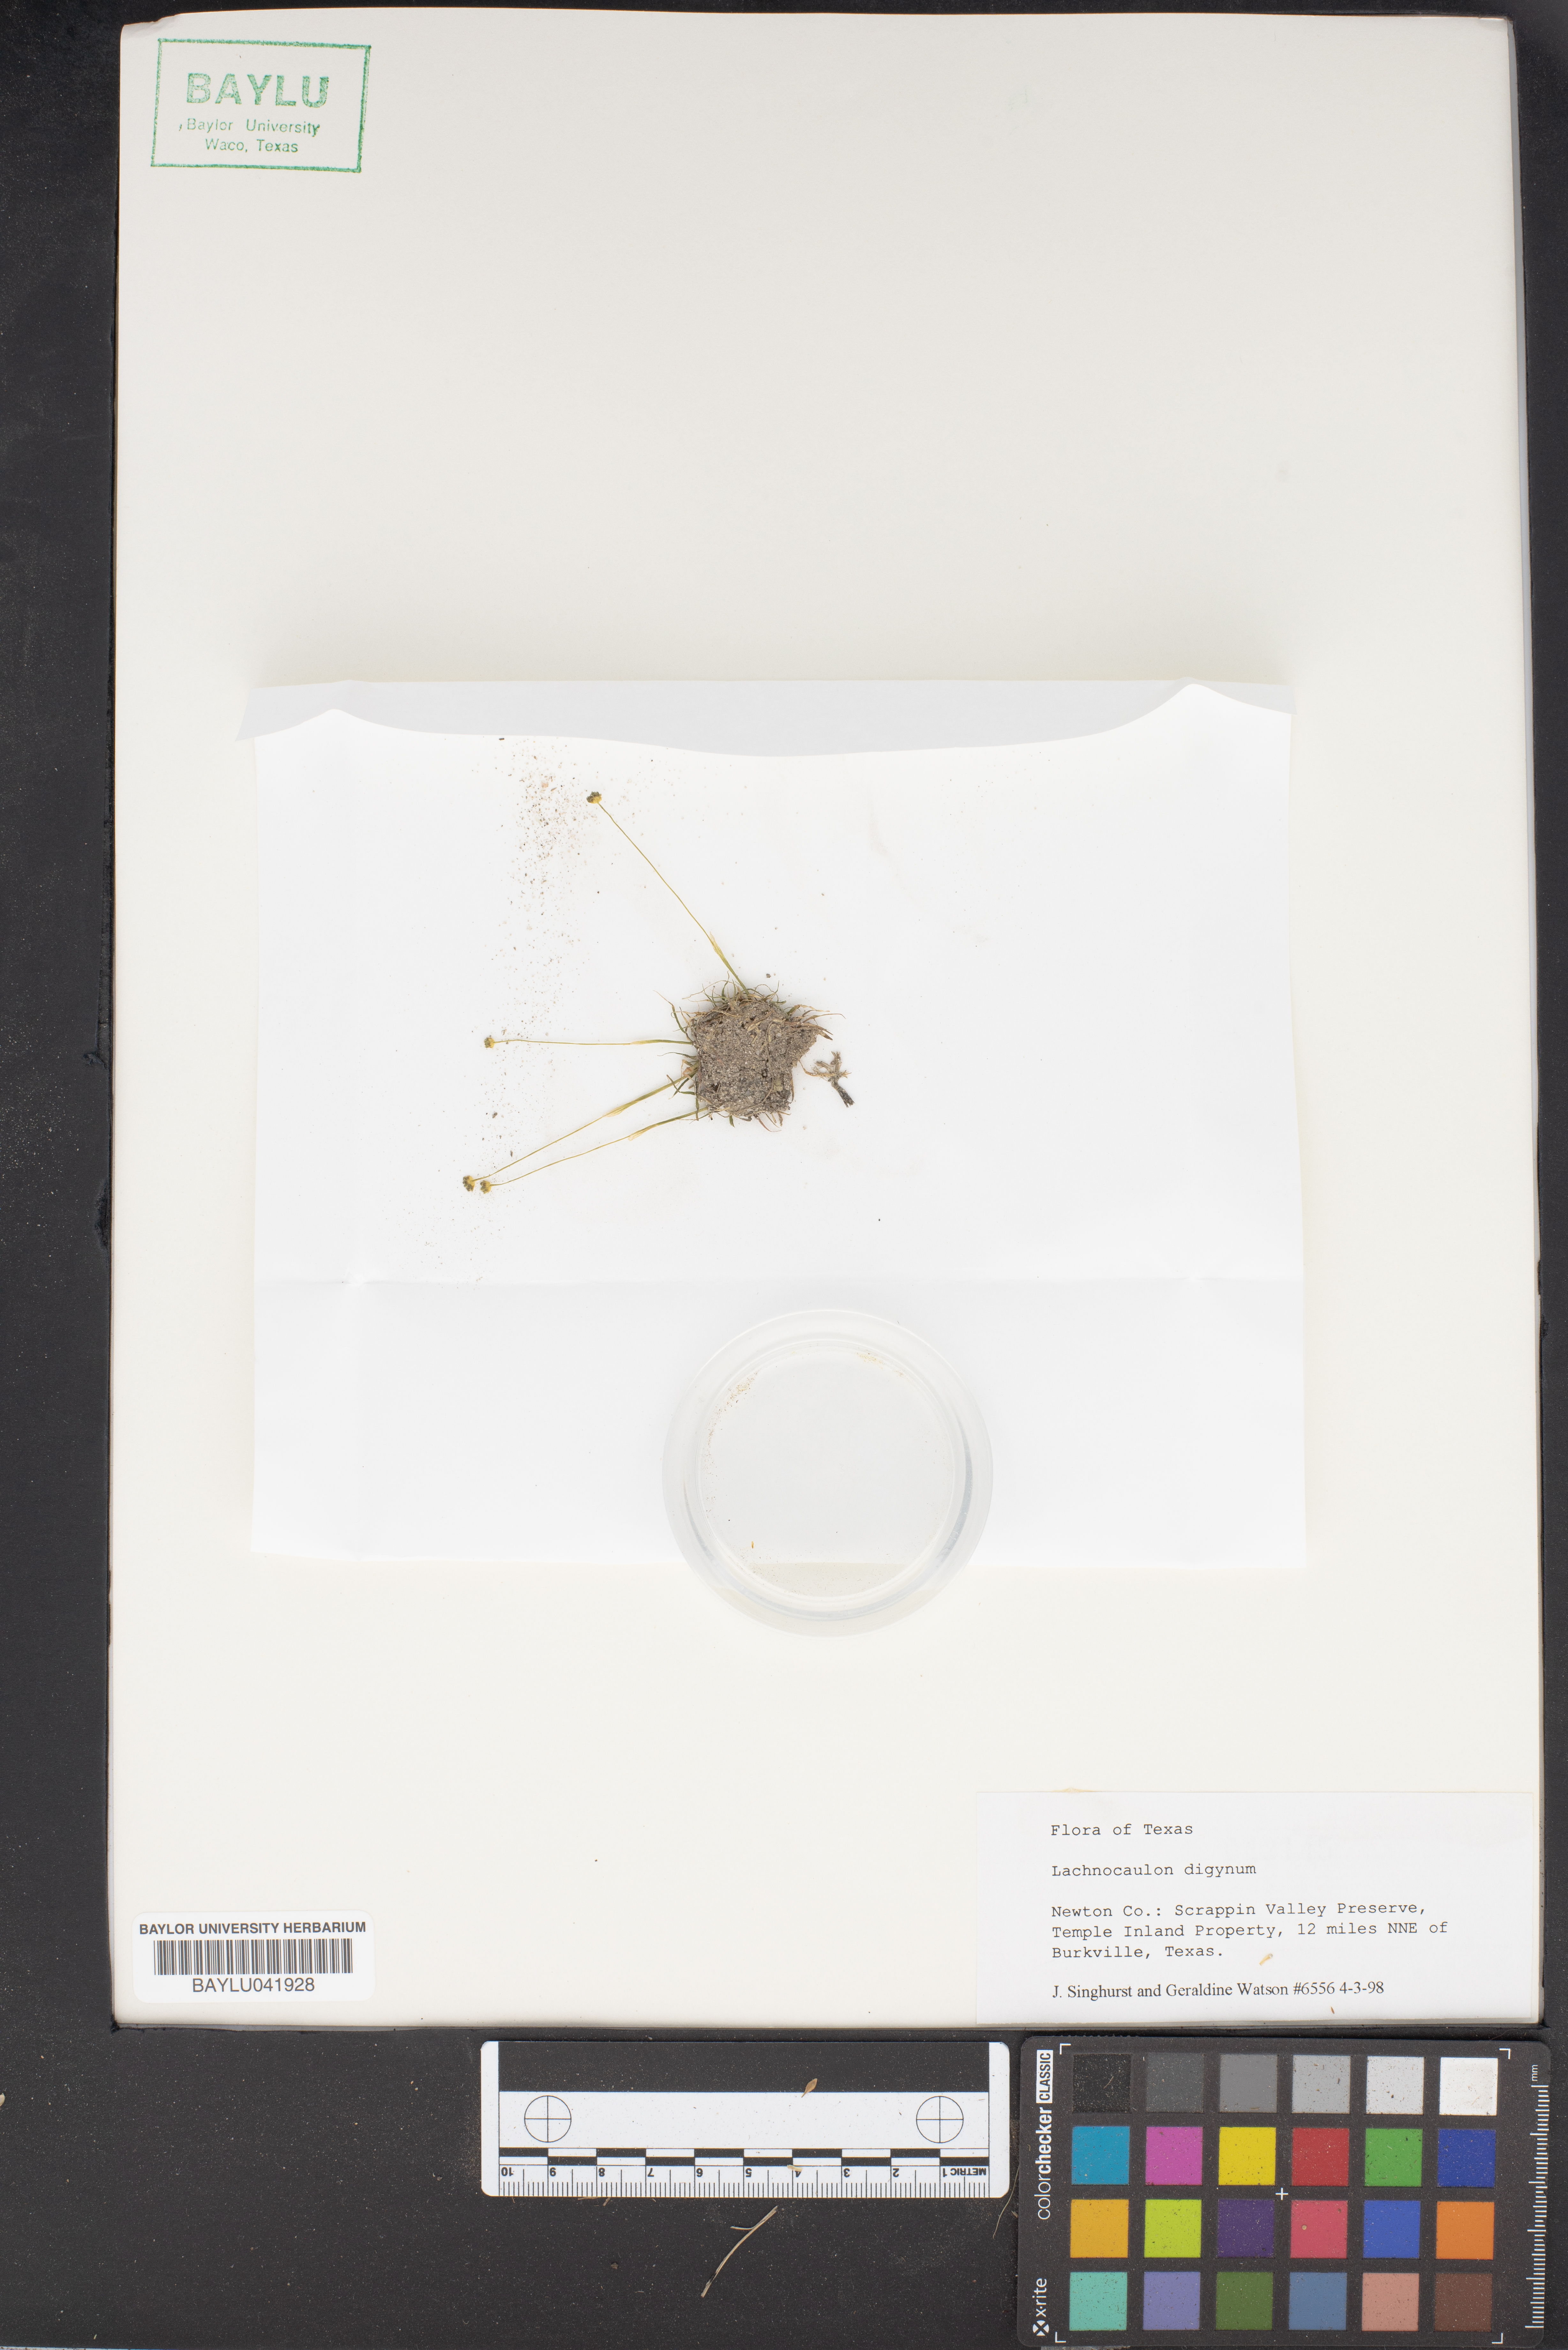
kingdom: Plantae
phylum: Tracheophyta
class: Liliopsida
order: Poales
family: Eriocaulaceae
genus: Paepalanthus
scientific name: Paepalanthus digynus
